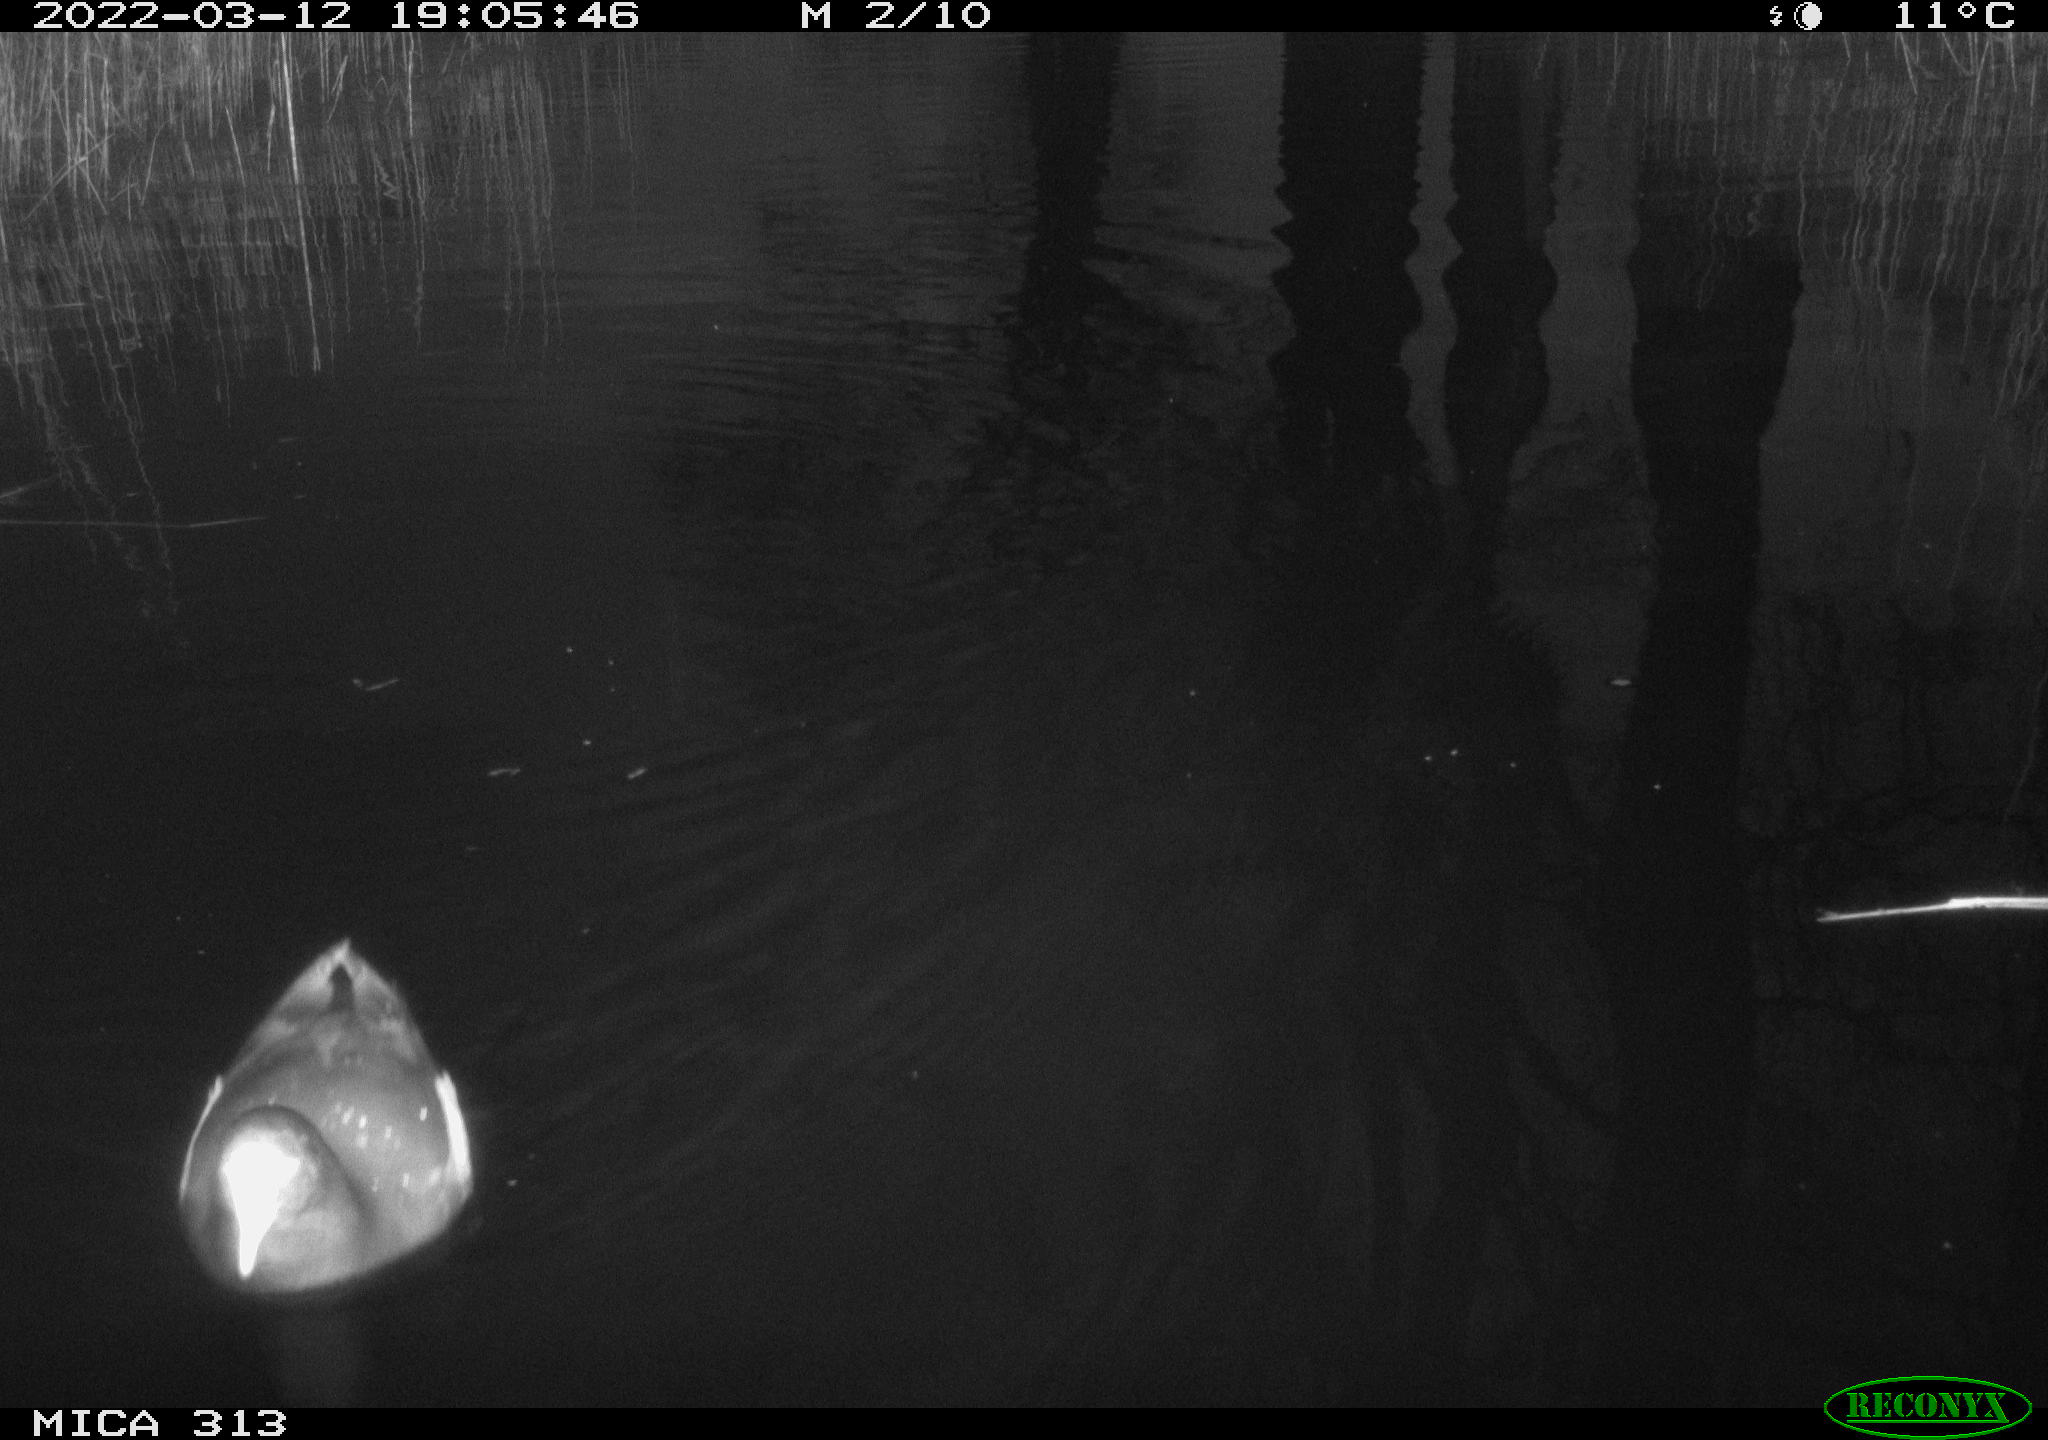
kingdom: Animalia
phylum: Chordata
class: Mammalia
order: Rodentia
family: Cricetidae
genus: Ondatra
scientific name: Ondatra zibethicus
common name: Muskrat
